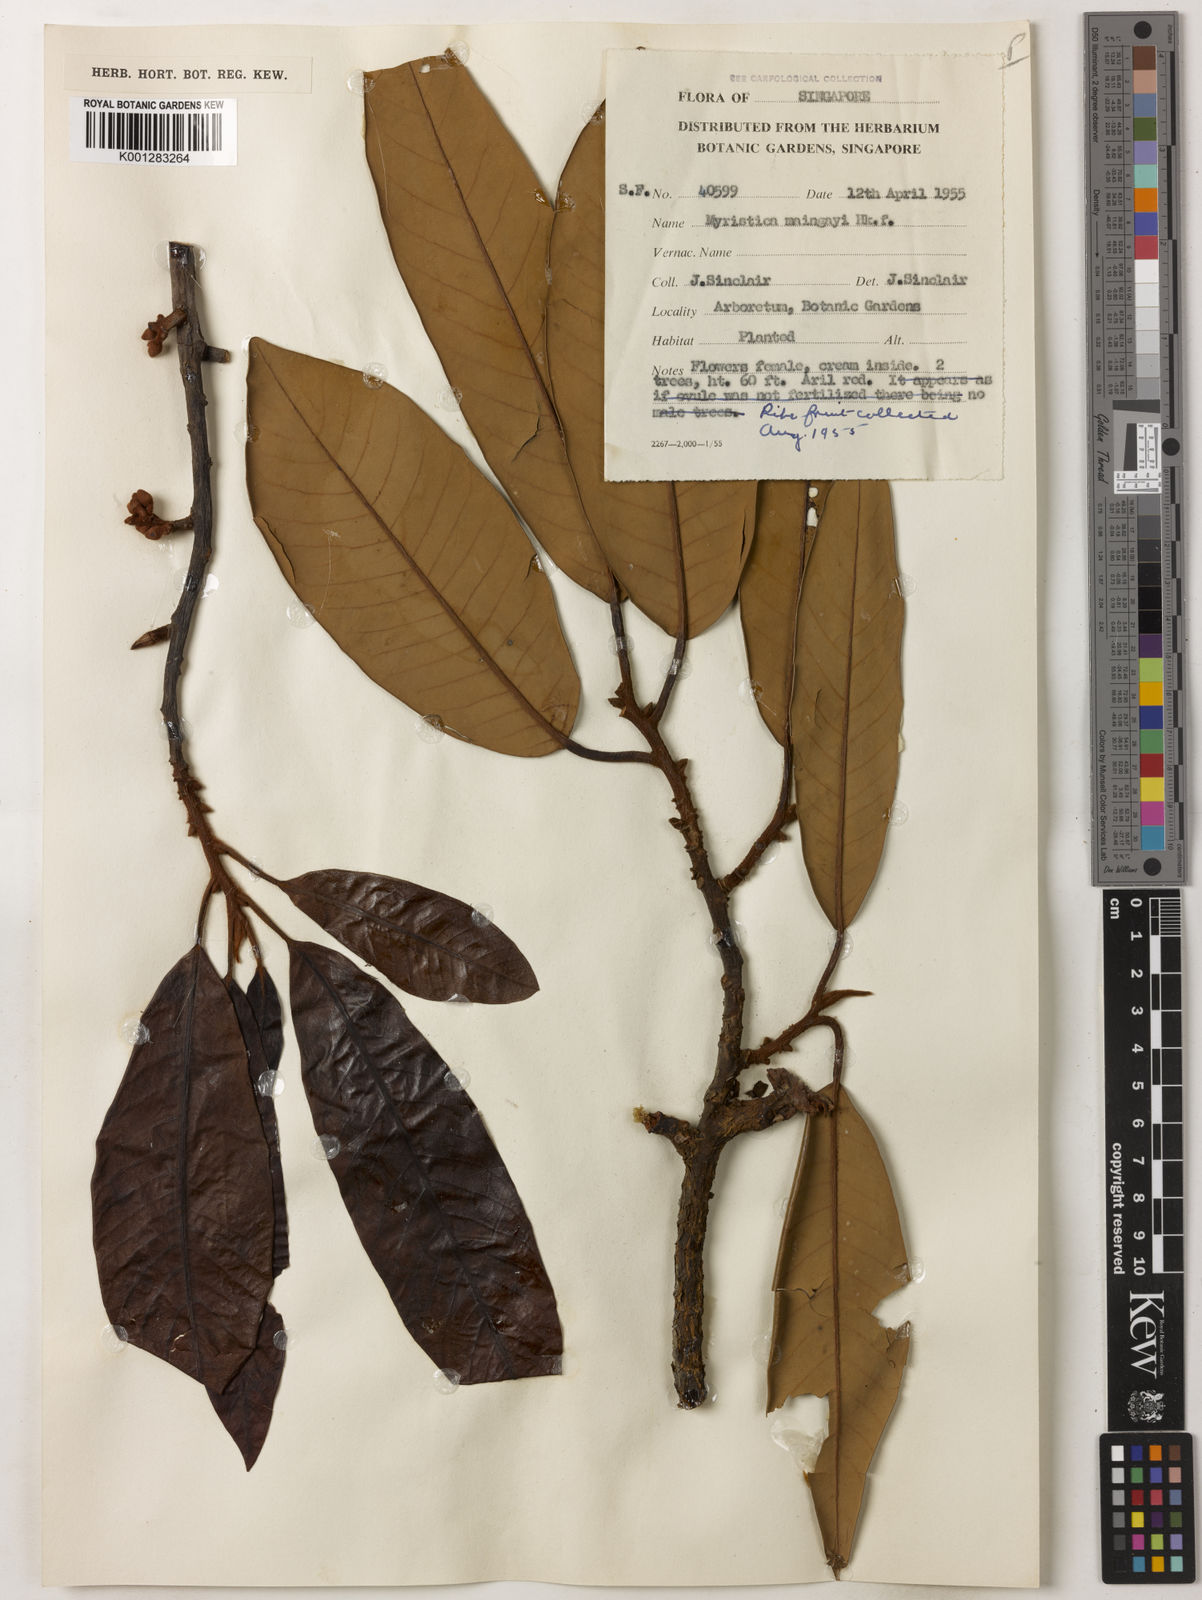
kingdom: Plantae
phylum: Tracheophyta
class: Magnoliopsida
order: Magnoliales
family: Myristicaceae
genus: Myristica
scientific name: Myristica maingayi
